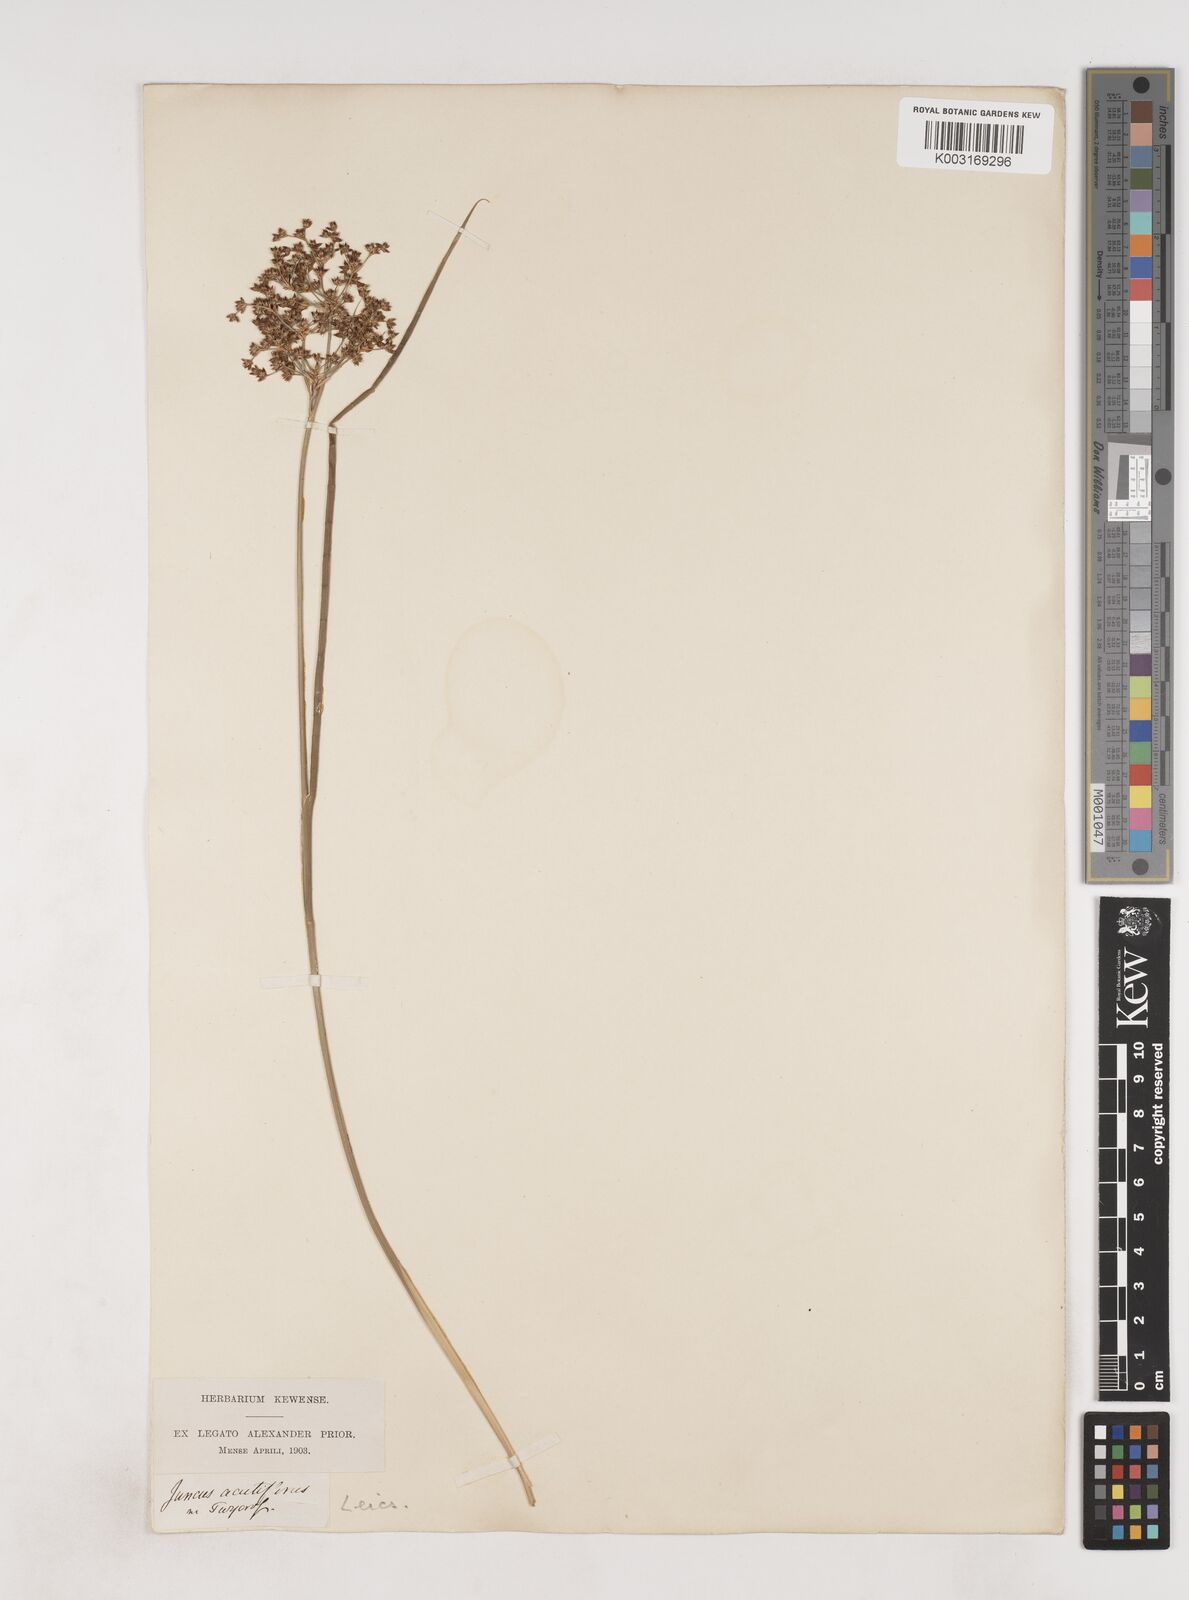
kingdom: Plantae
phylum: Tracheophyta
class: Liliopsida
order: Poales
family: Juncaceae
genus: Juncus
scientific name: Juncus acutiflorus
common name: Sharp-flowered rush
